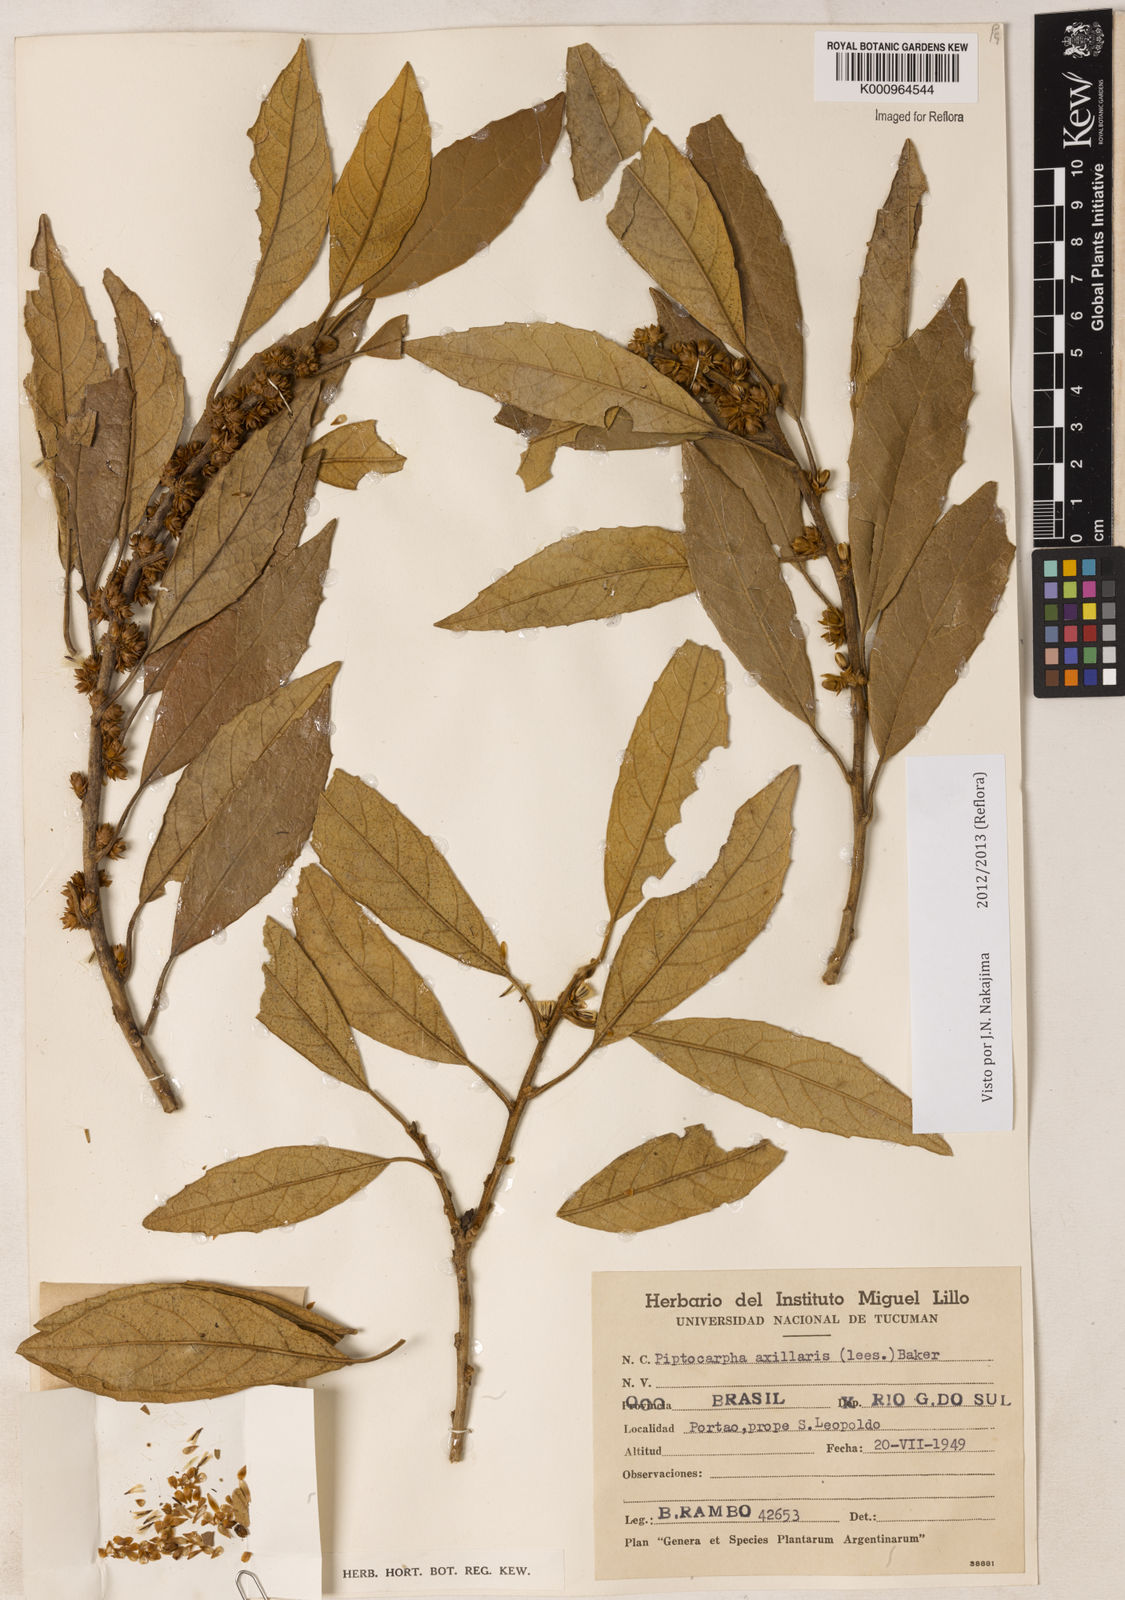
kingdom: Plantae
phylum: Tracheophyta
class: Magnoliopsida
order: Asterales
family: Asteraceae
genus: Piptocarpha
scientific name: Piptocarpha axillaris
